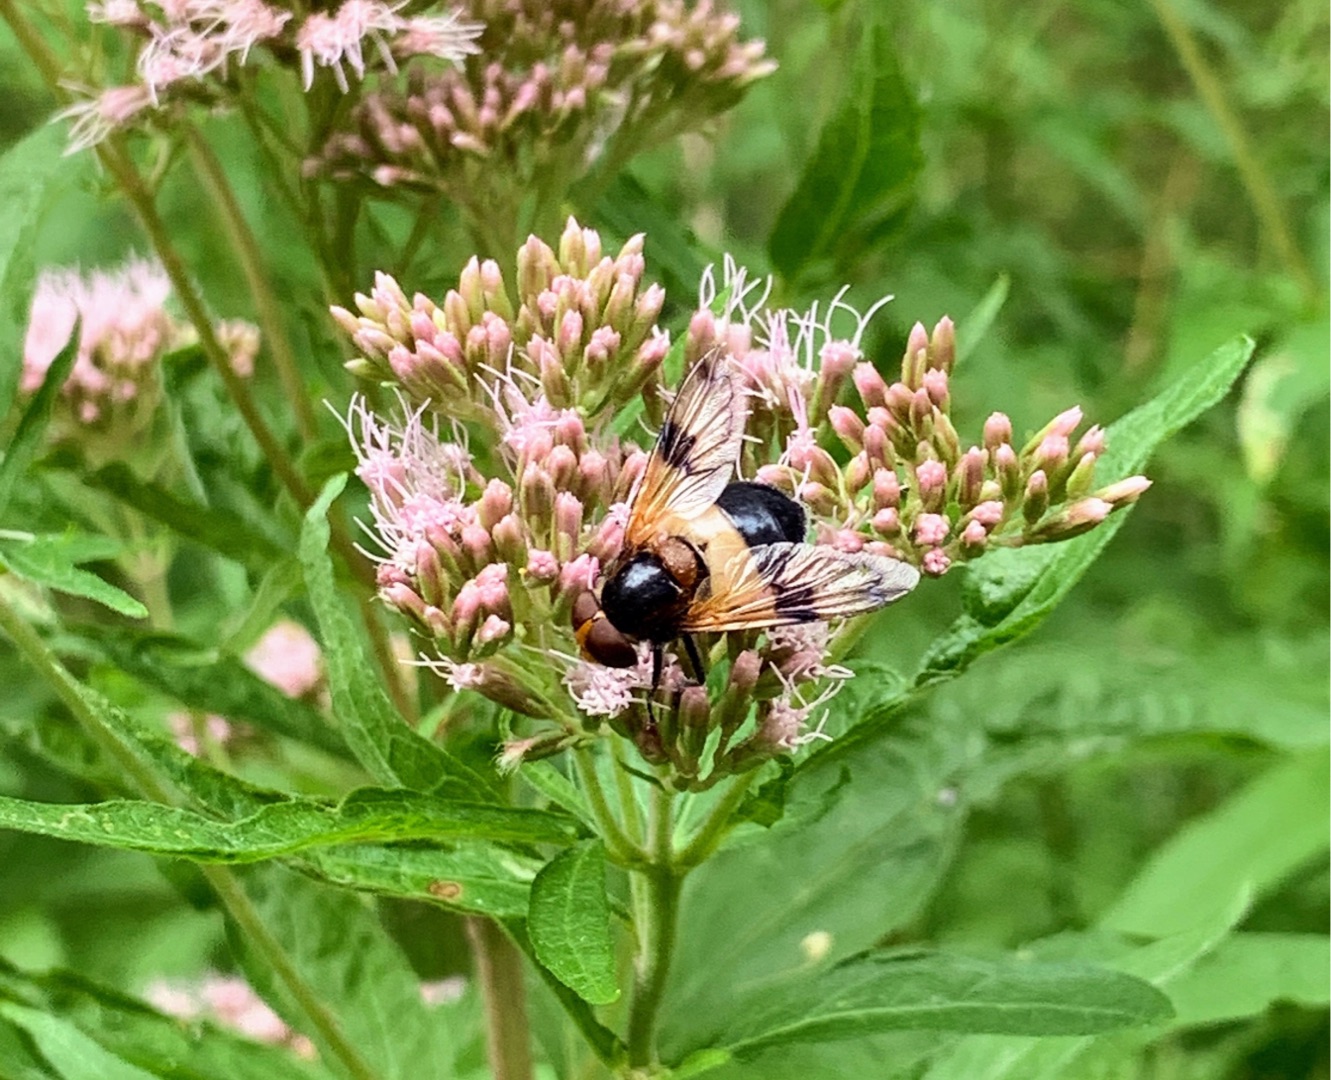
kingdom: Animalia
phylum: Arthropoda
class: Insecta
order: Diptera
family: Syrphidae
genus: Volucella
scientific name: Volucella pellucens
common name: Hvidbåndet humlesvirreflue
